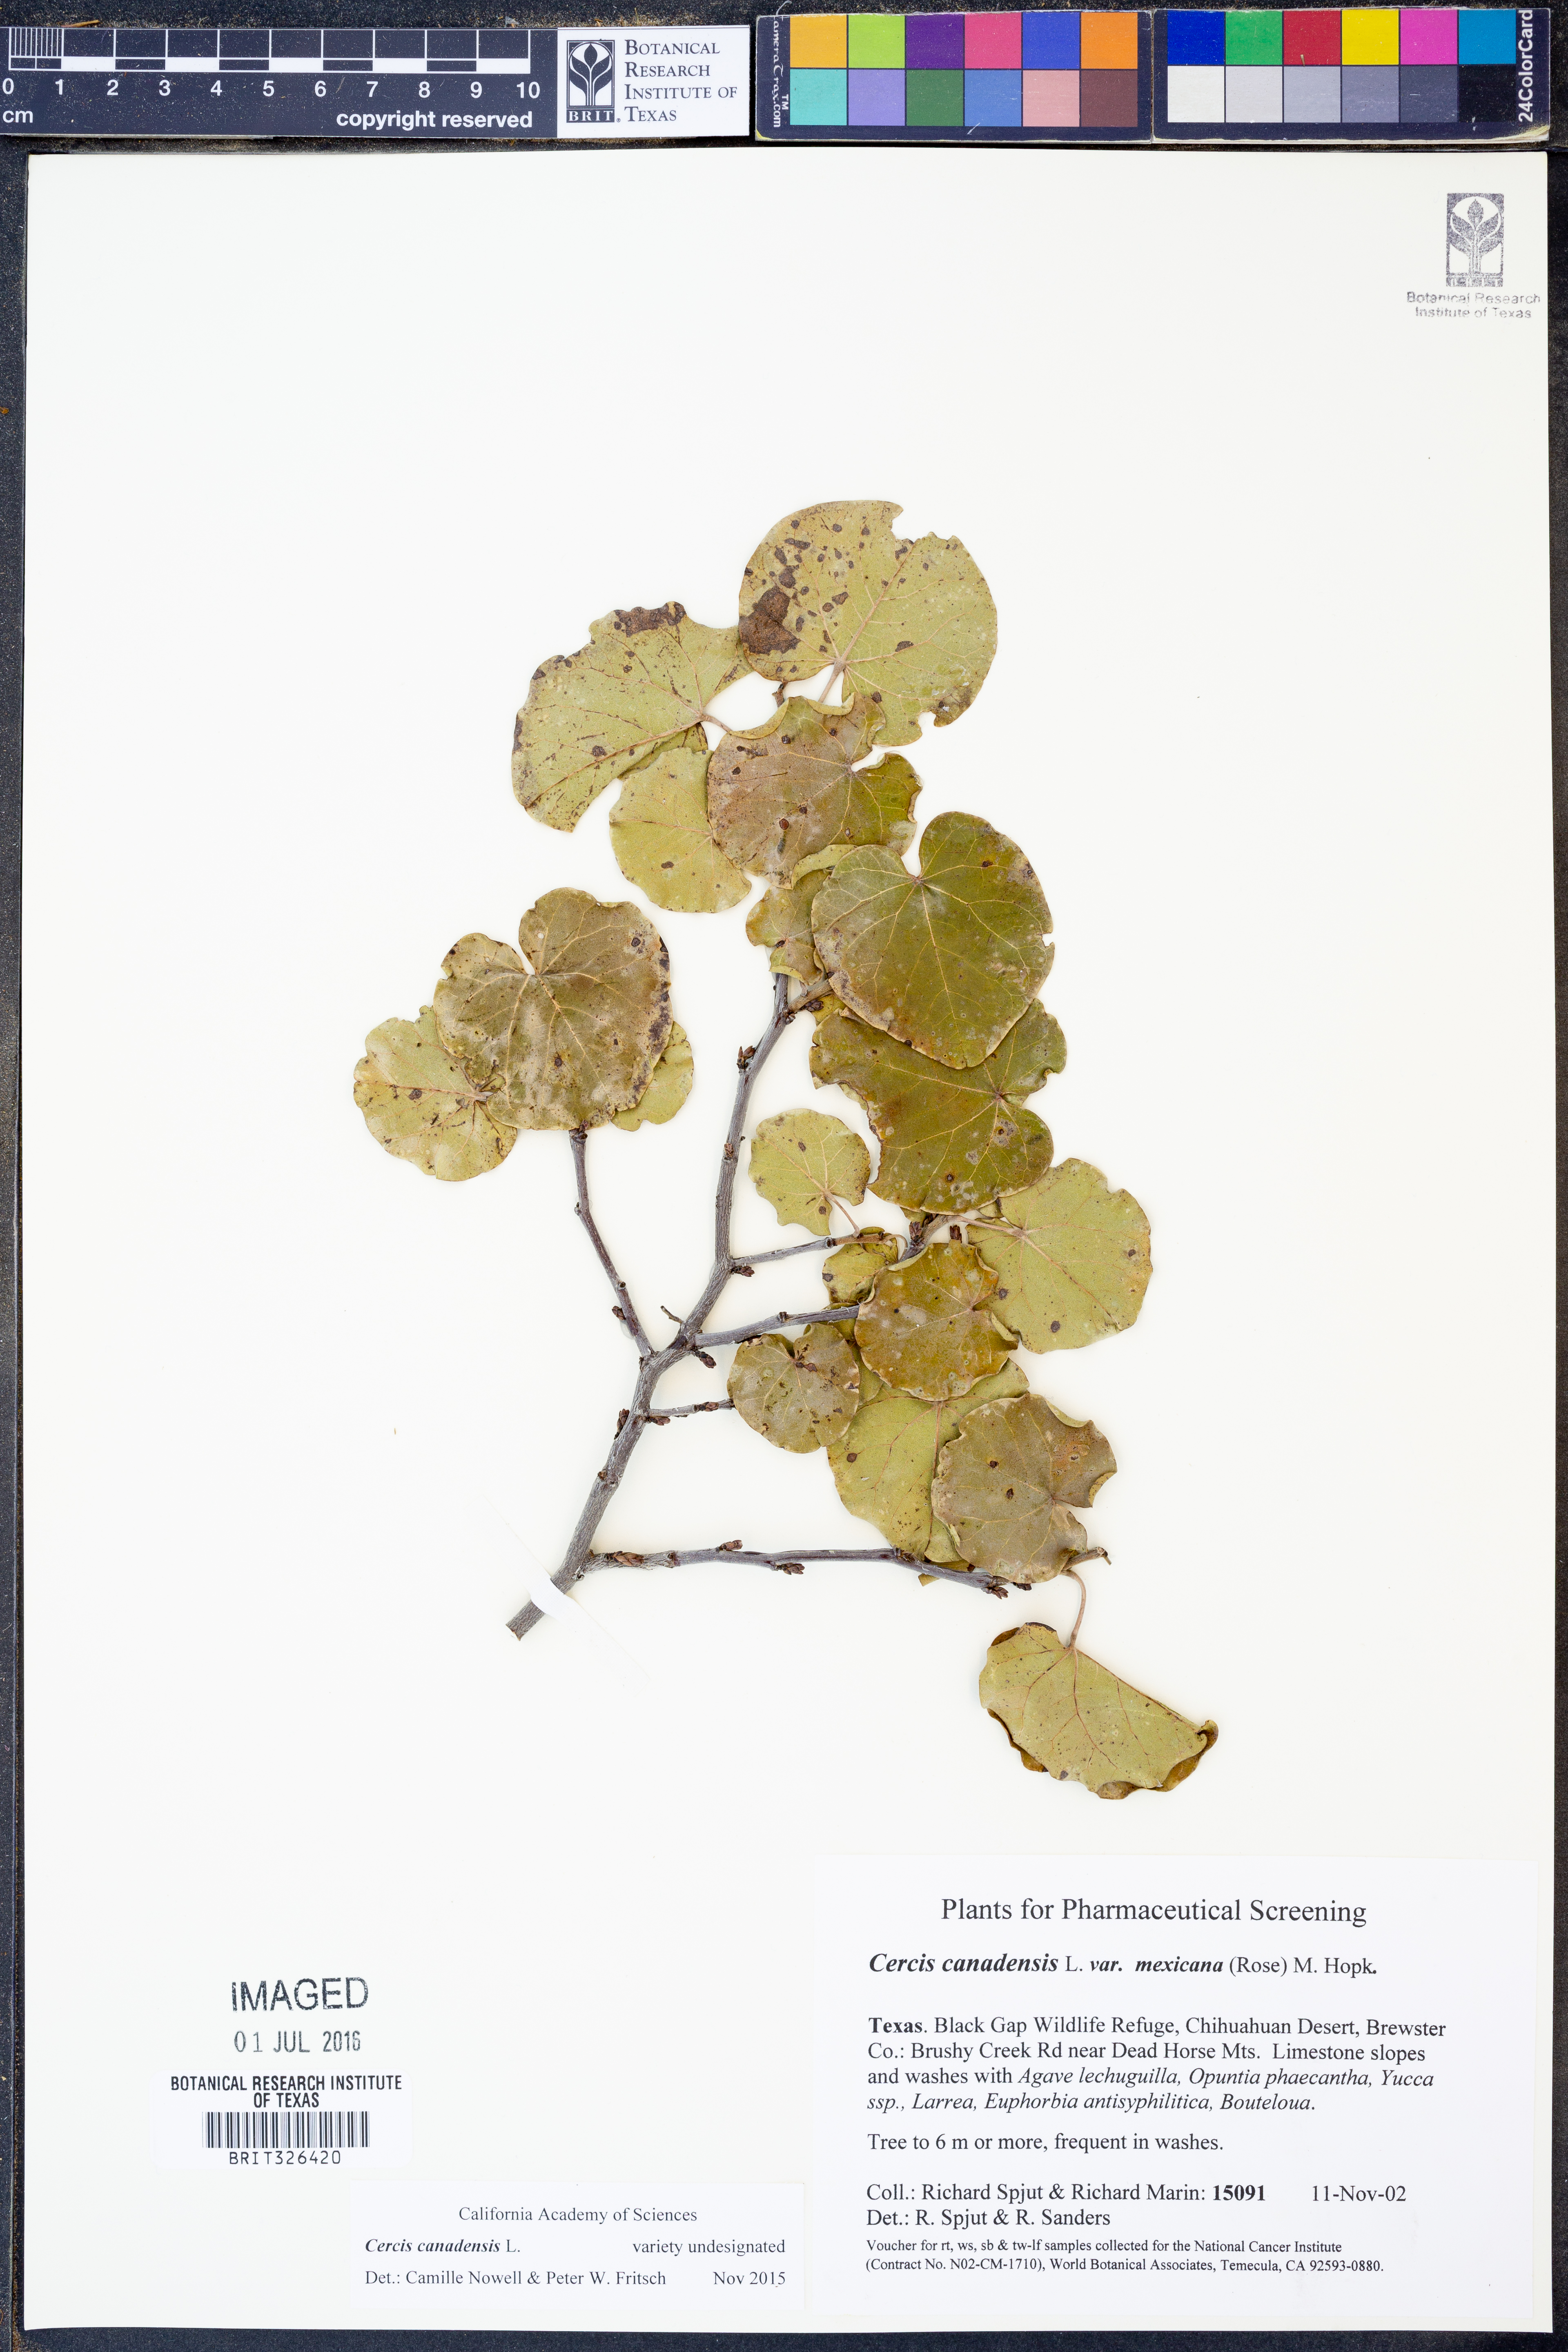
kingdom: Plantae
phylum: Tracheophyta
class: Magnoliopsida
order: Fabales
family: Fabaceae
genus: Cercis
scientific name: Cercis canadensis
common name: Eastern redbud
